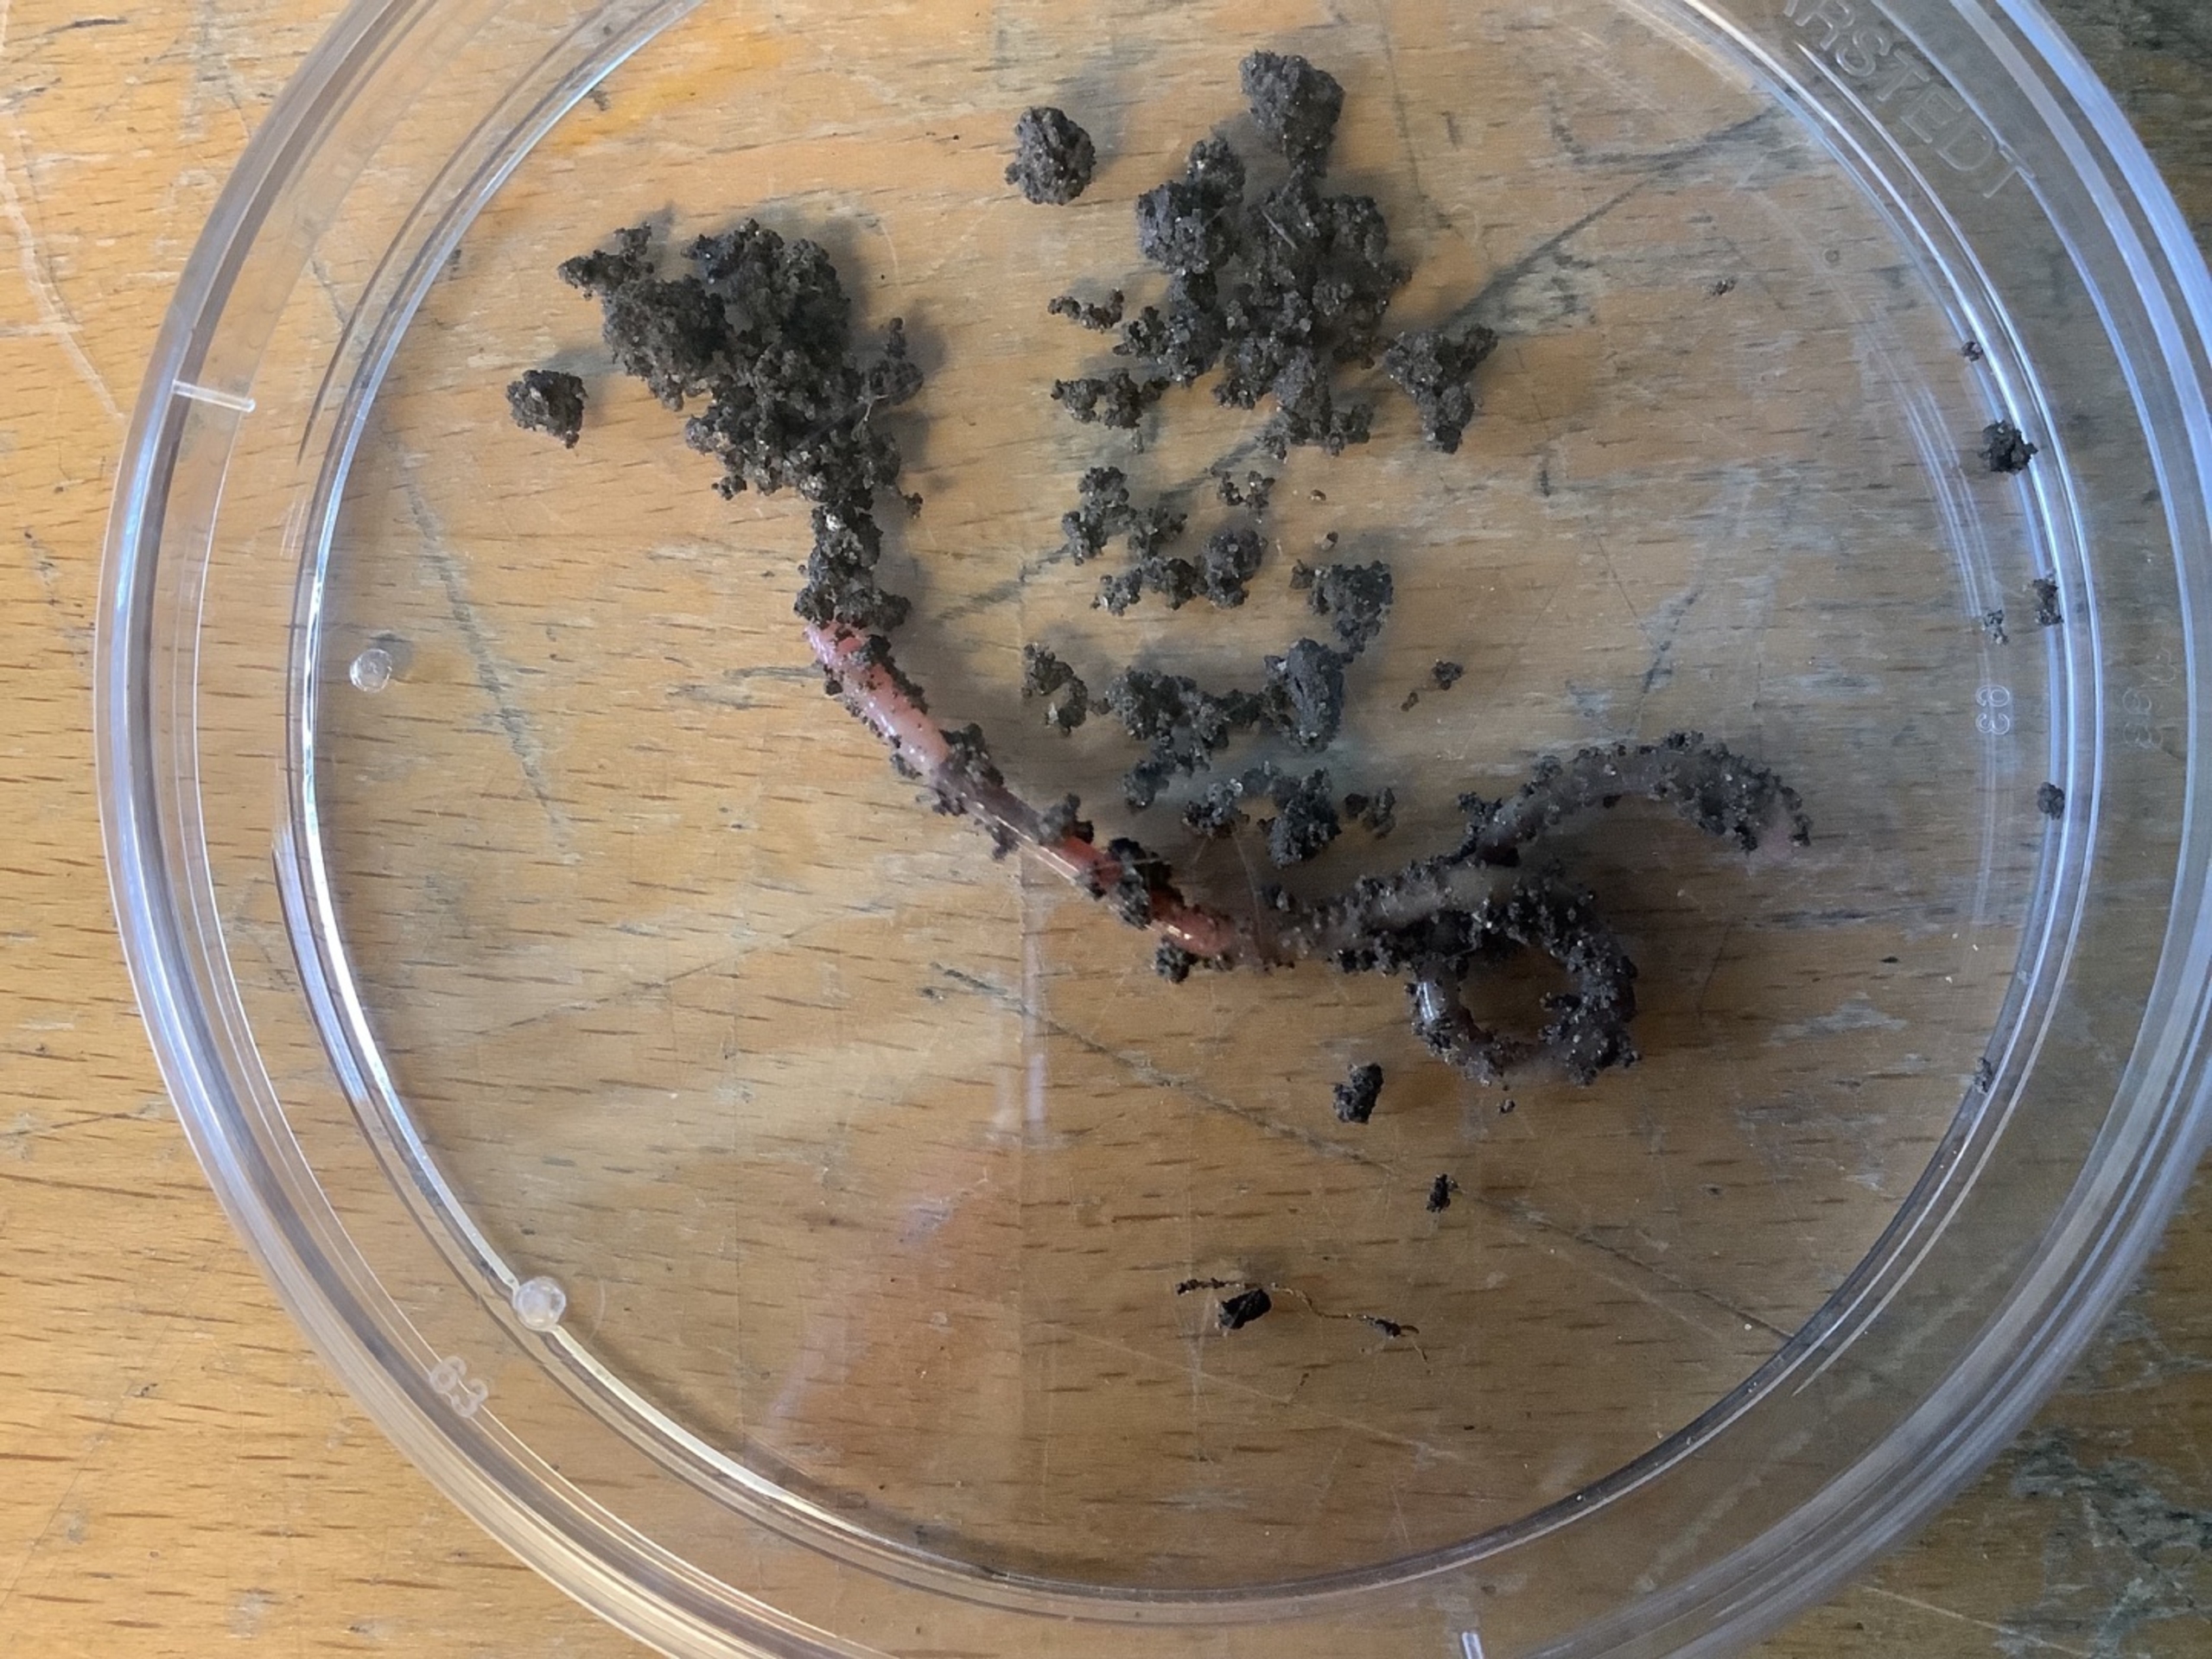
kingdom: Animalia
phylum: Annelida
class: Clitellata
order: Crassiclitellata
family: Lumbricidae
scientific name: Lumbricidae
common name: Regnorme
